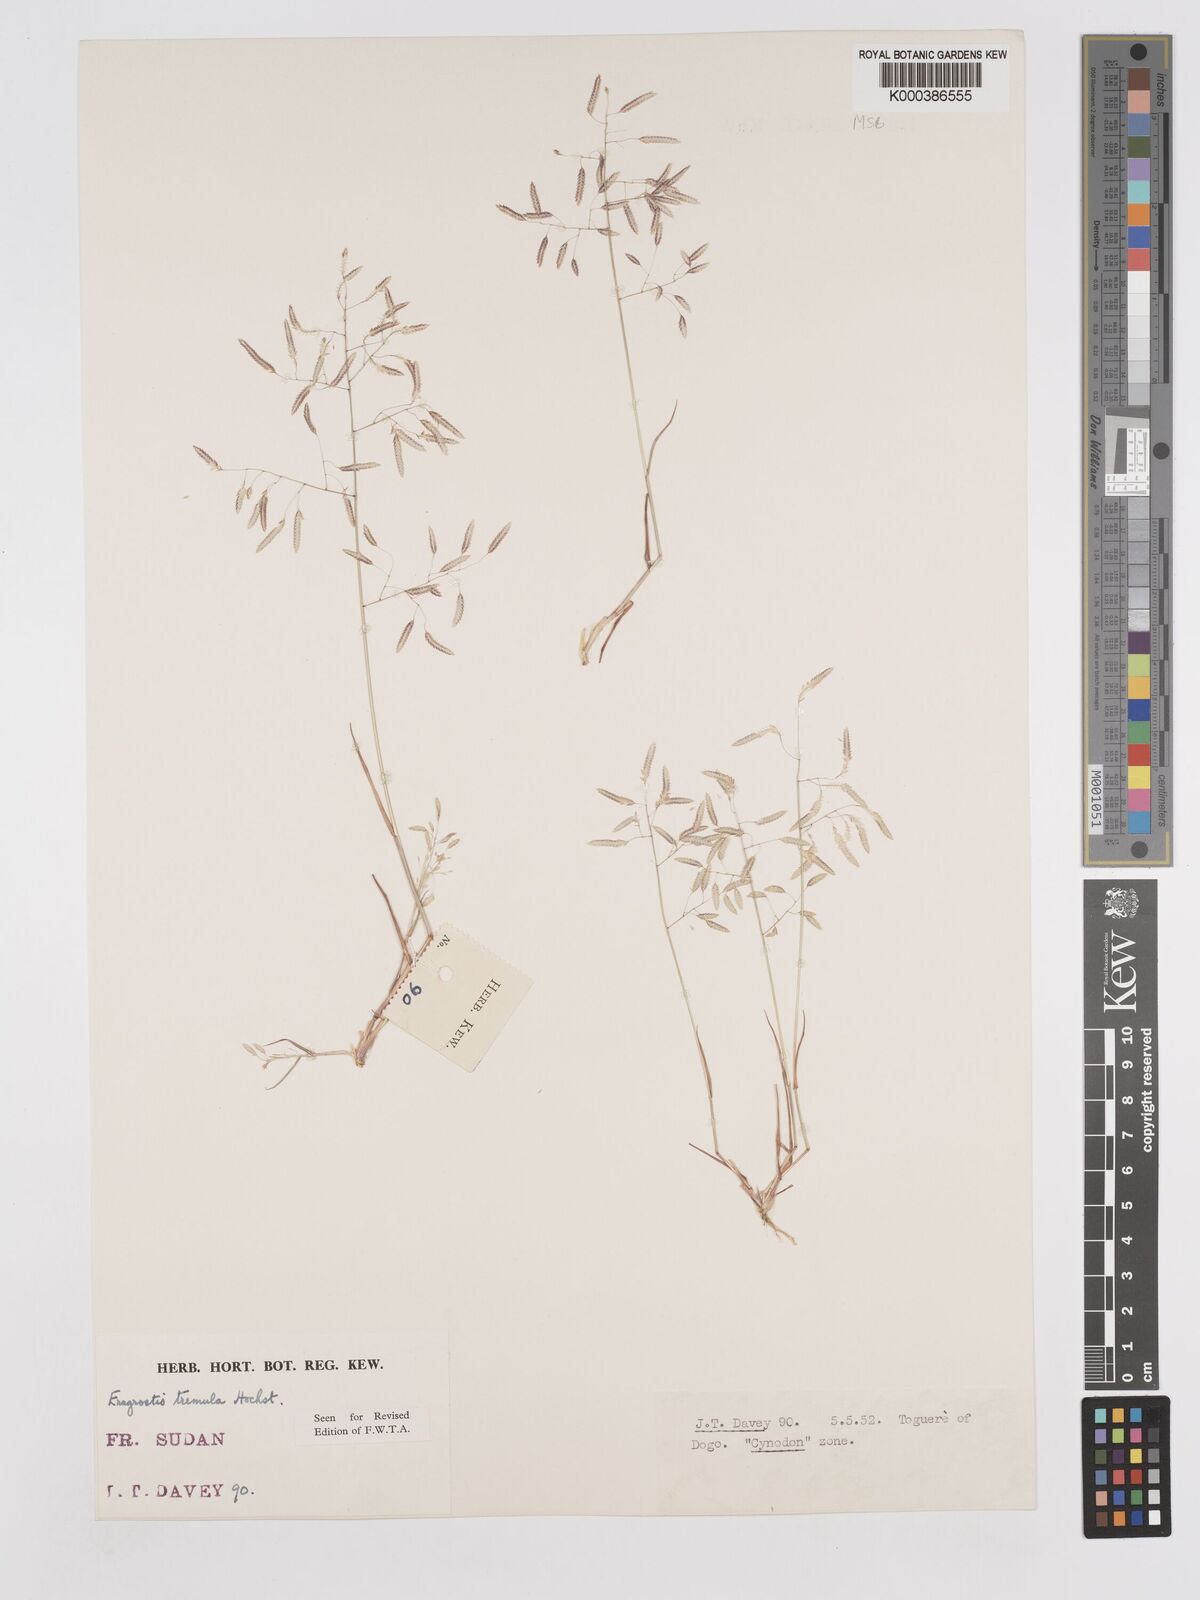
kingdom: Plantae
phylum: Tracheophyta
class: Liliopsida
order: Poales
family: Poaceae
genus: Eragrostis
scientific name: Eragrostis tremula
